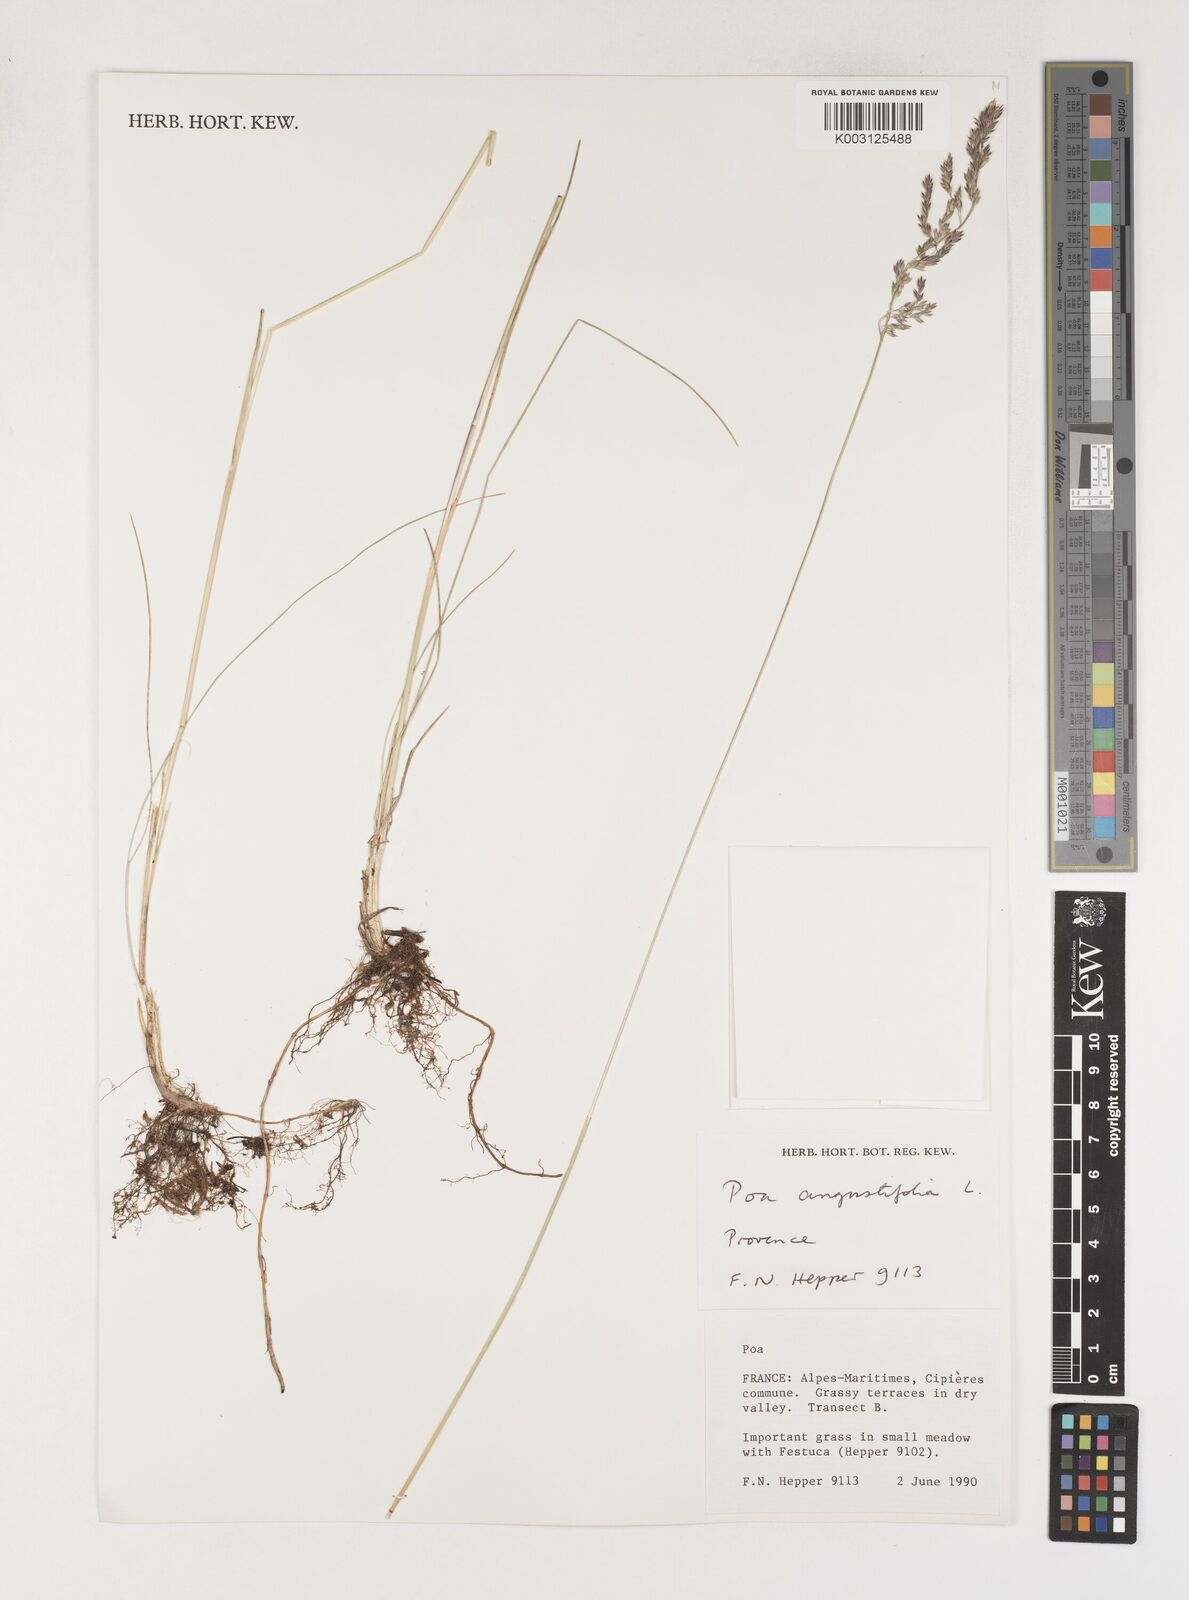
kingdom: Plantae
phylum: Tracheophyta
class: Liliopsida
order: Poales
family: Poaceae
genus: Poa
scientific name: Poa angustifolia
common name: Narrow-leaved meadow-grass
